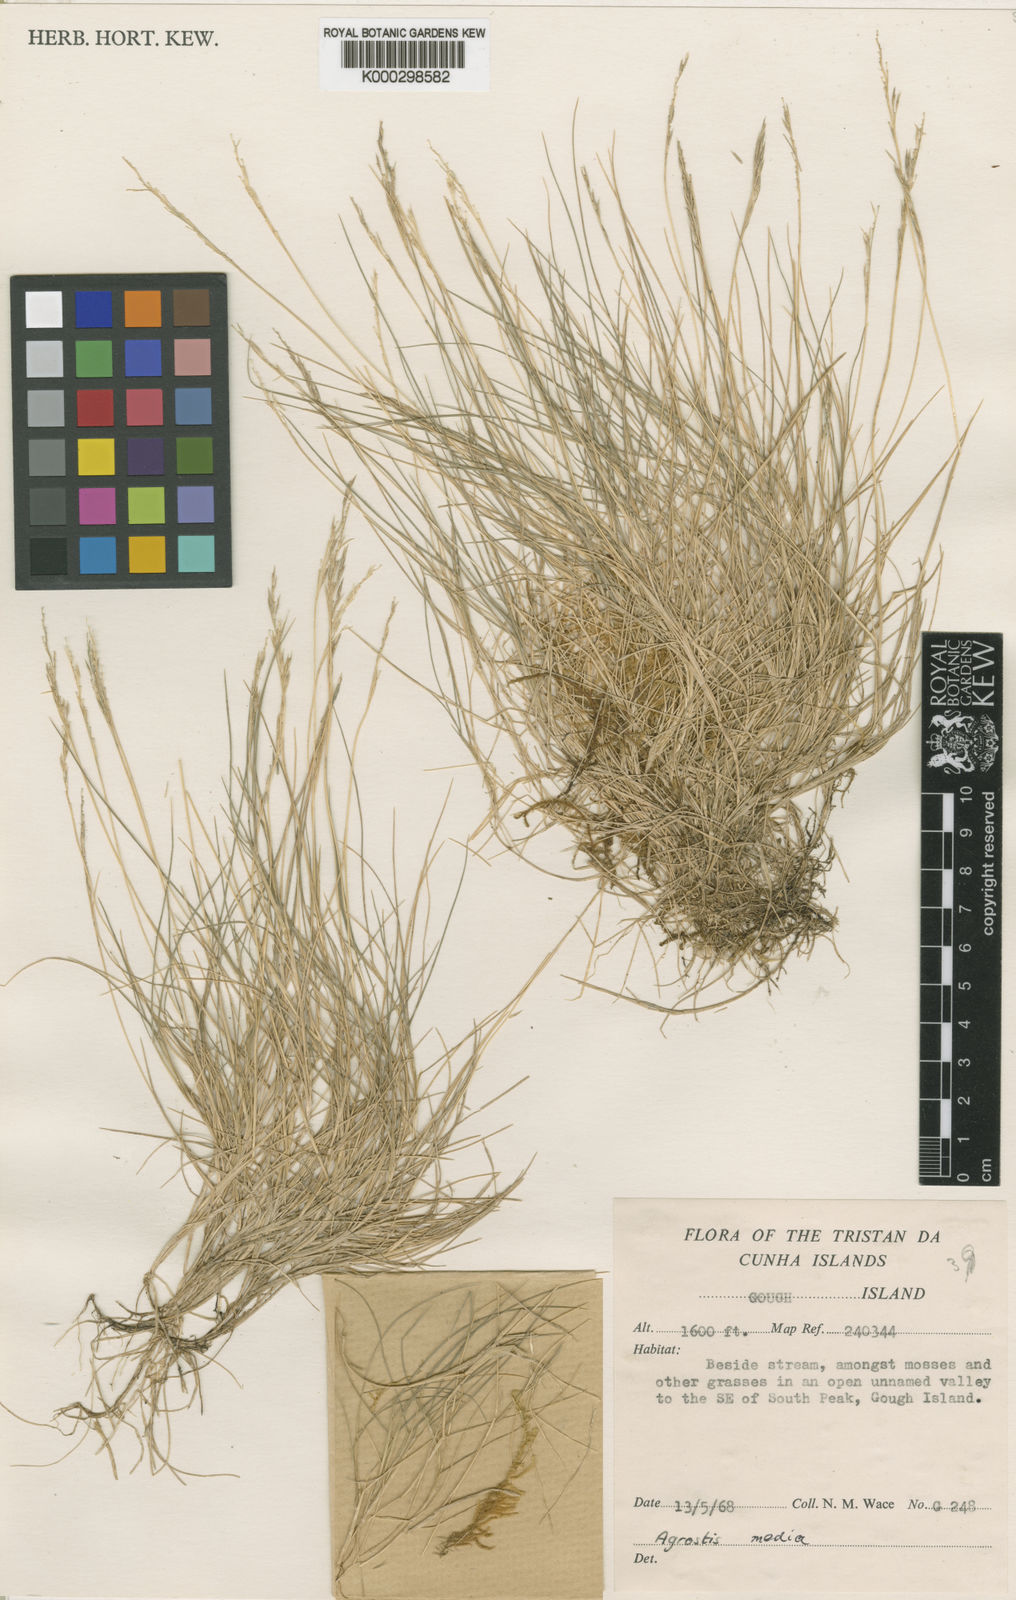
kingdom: Plantae
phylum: Tracheophyta
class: Liliopsida
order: Poales
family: Poaceae
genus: Agrostis
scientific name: Agrostis media
